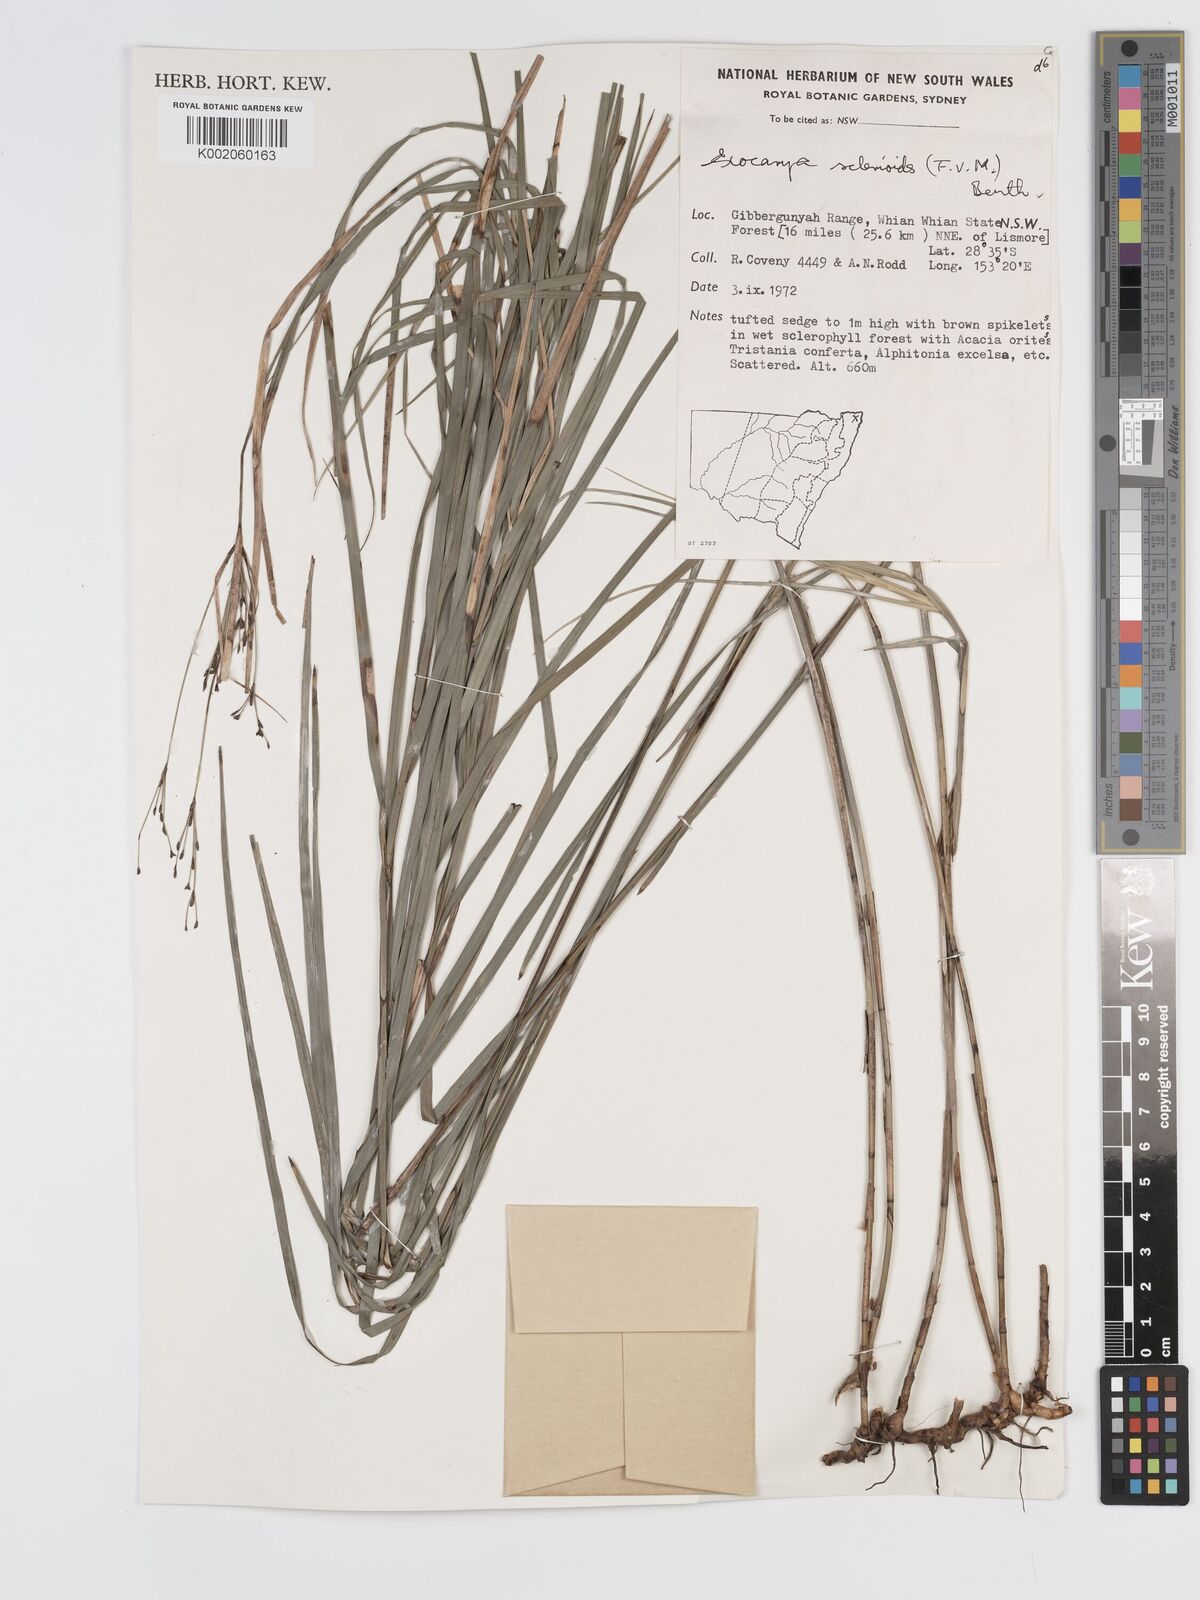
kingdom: Plantae
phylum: Tracheophyta
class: Liliopsida
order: Poales
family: Cyperaceae
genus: Exocarya
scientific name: Exocarya sclerioides
